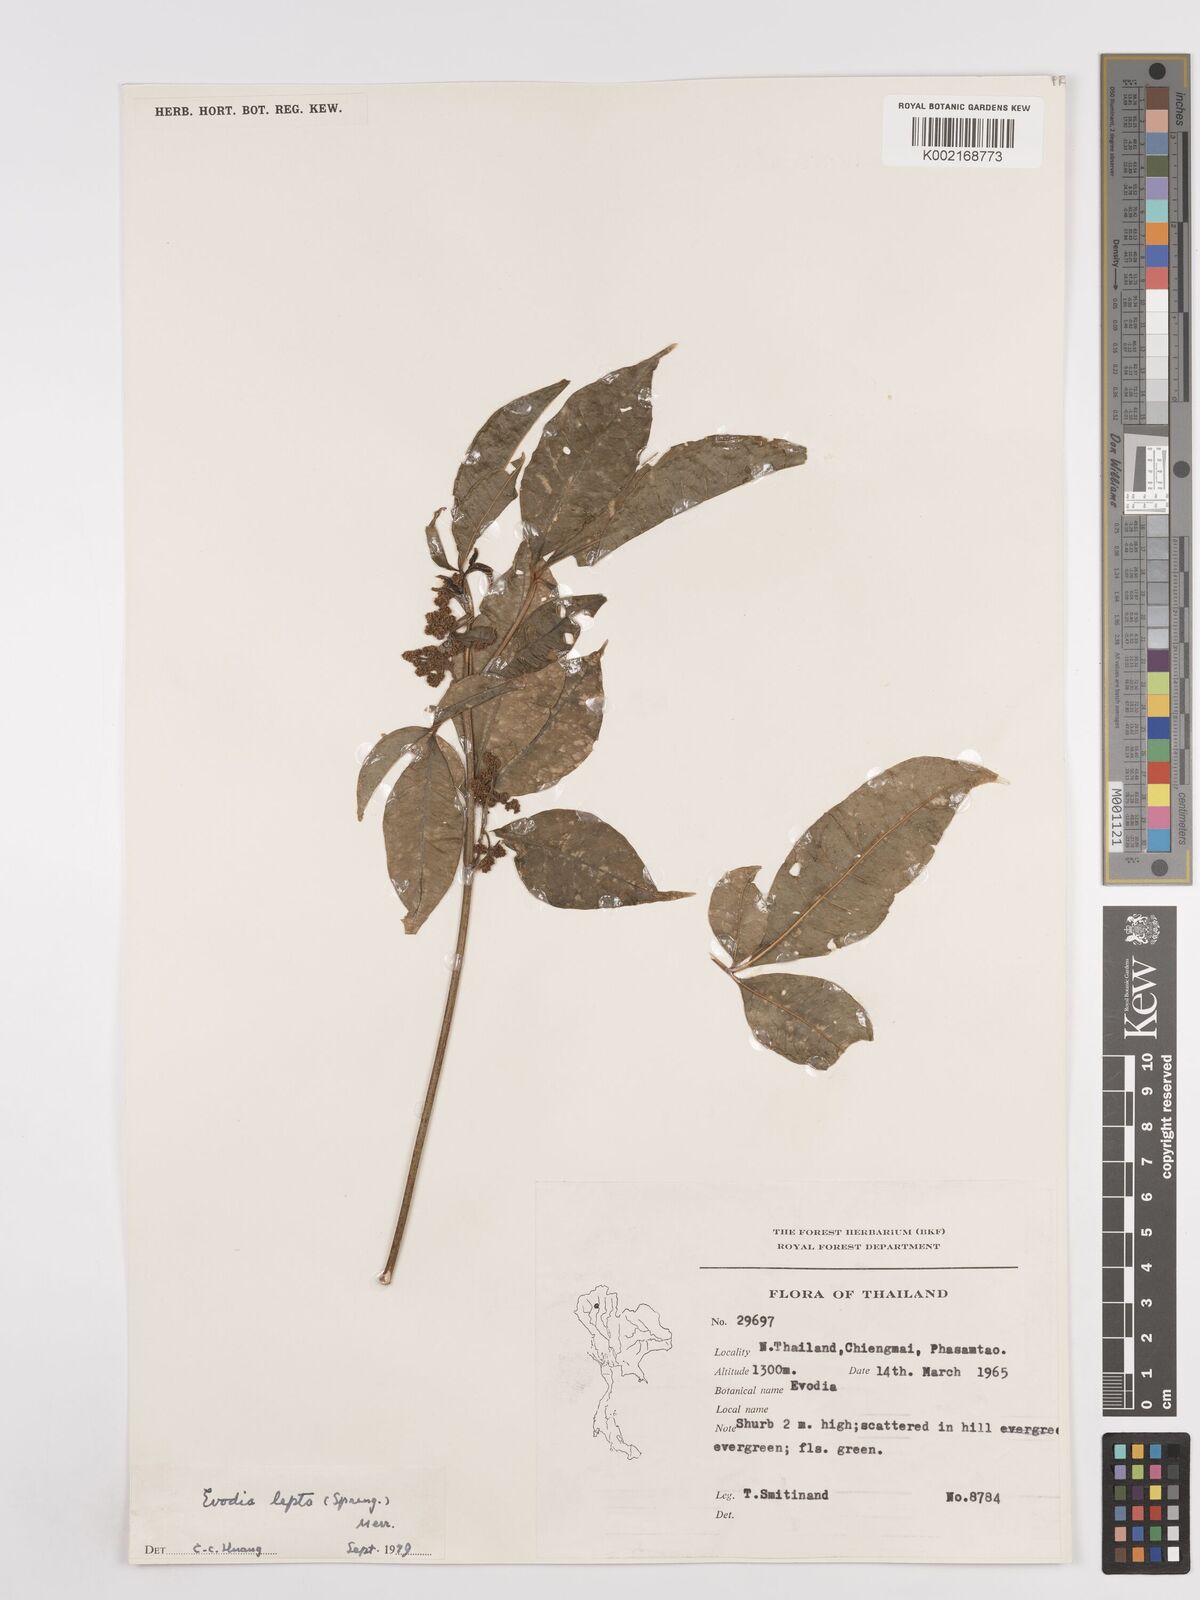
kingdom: Plantae
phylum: Tracheophyta
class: Magnoliopsida
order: Sapindales
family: Rutaceae
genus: Euodia
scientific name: Euodia
